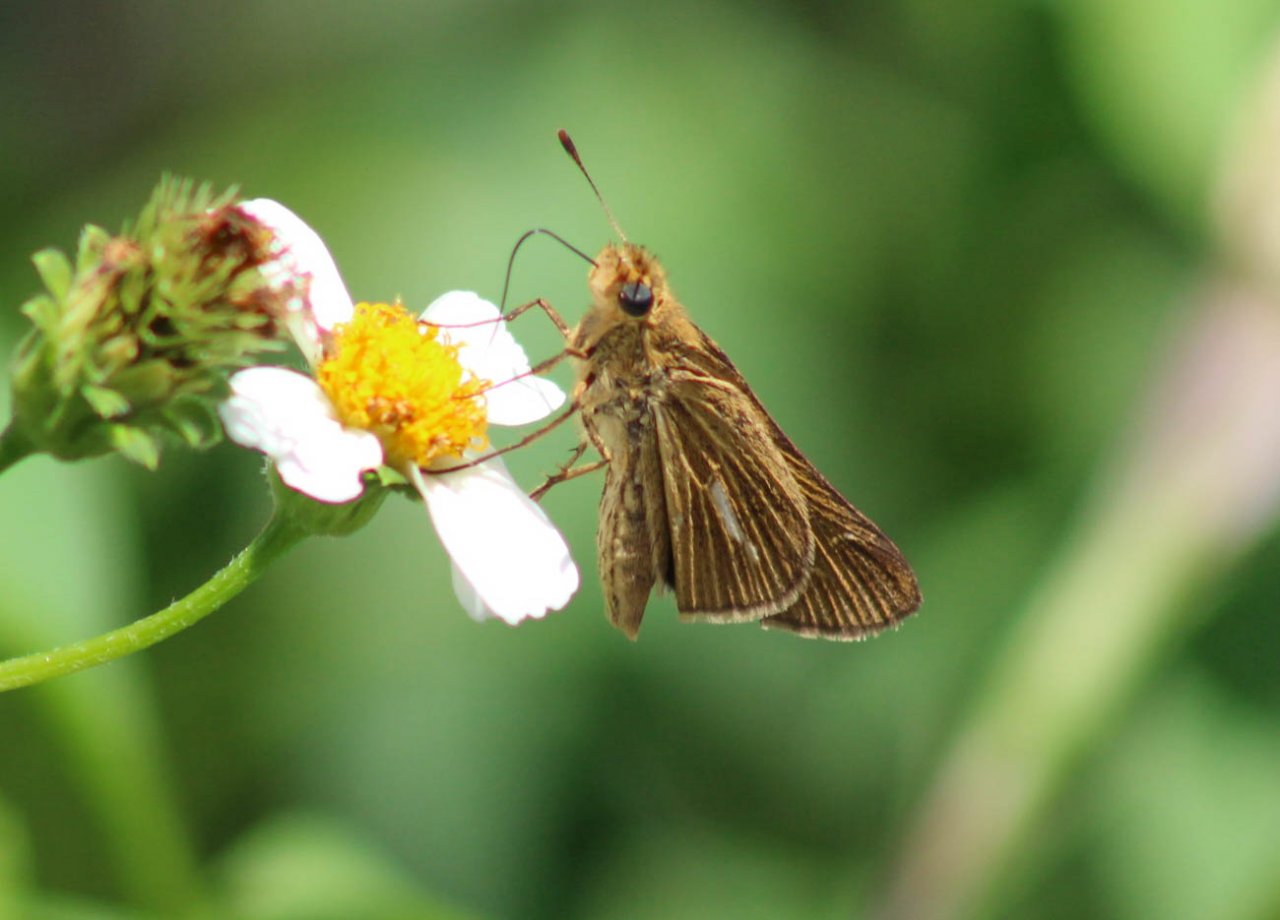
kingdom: Animalia
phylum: Arthropoda
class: Insecta
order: Lepidoptera
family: Hesperiidae
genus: Panoquina
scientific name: Panoquina panoquin
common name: Salt Marsh Skipper
